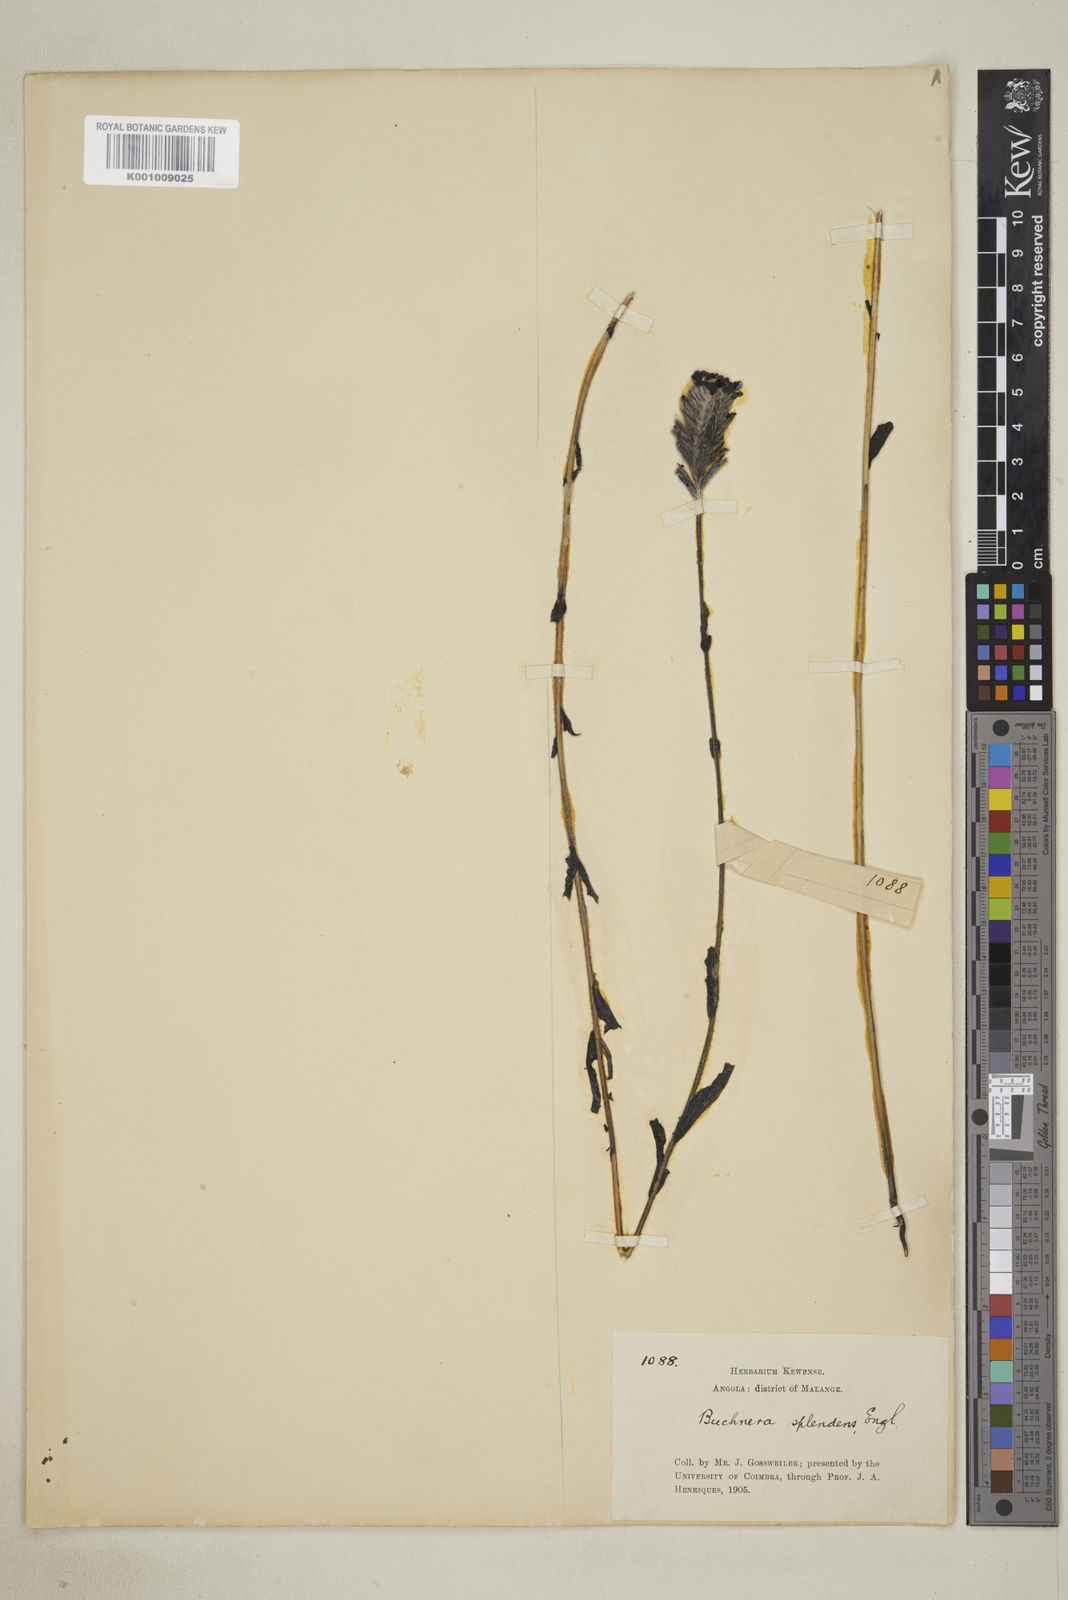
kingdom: Plantae
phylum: Tracheophyta
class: Magnoliopsida
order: Lamiales
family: Orobanchaceae
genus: Buchnera
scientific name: Buchnera splendens
